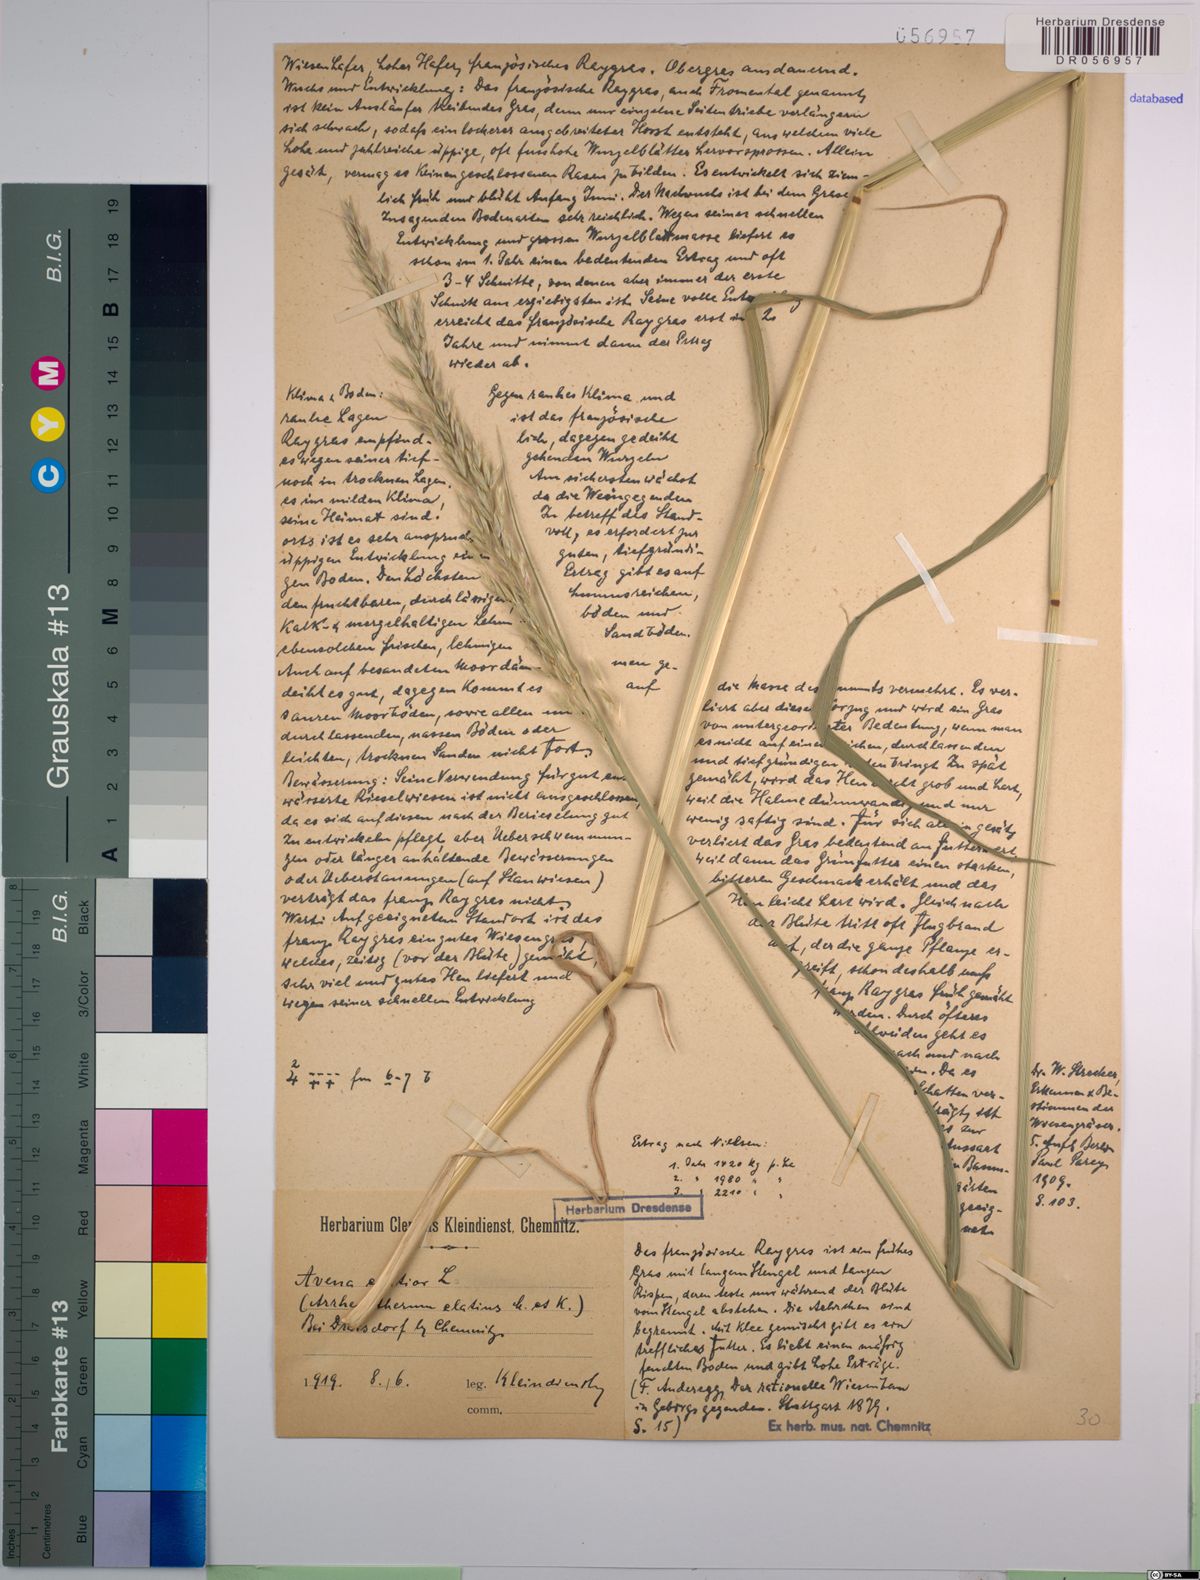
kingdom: Plantae
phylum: Tracheophyta
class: Liliopsida
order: Poales
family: Poaceae
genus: Arrhenatherum
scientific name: Arrhenatherum elatius
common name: Tall oatgrass
